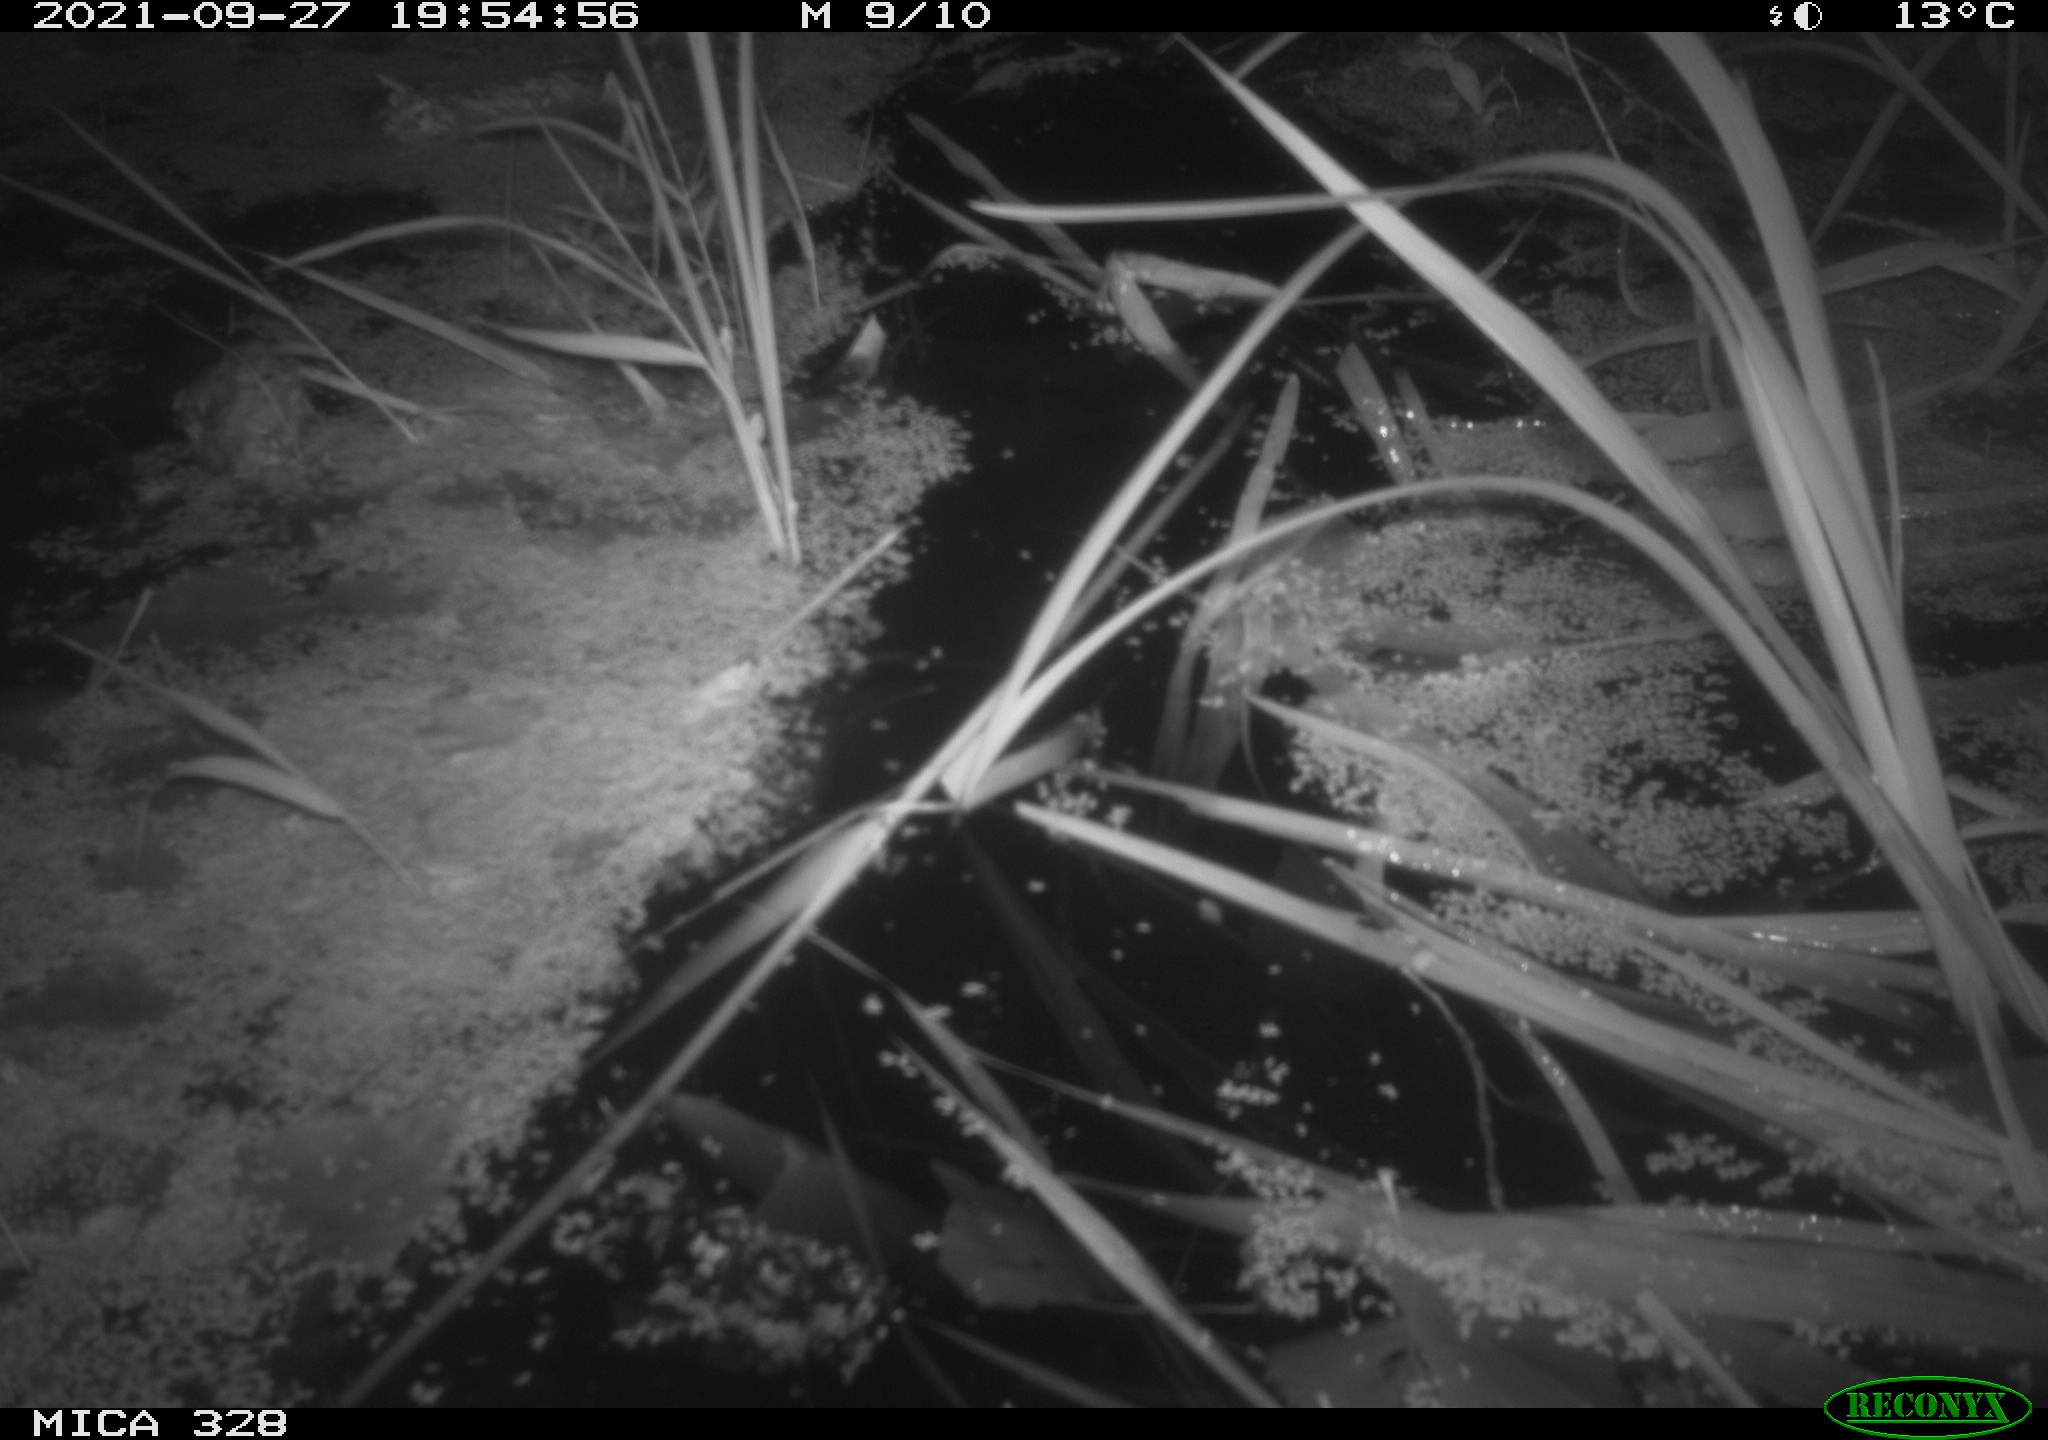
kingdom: Animalia
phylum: Chordata
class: Mammalia
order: Rodentia
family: Cricetidae
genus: Ondatra
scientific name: Ondatra zibethicus
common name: Muskrat
